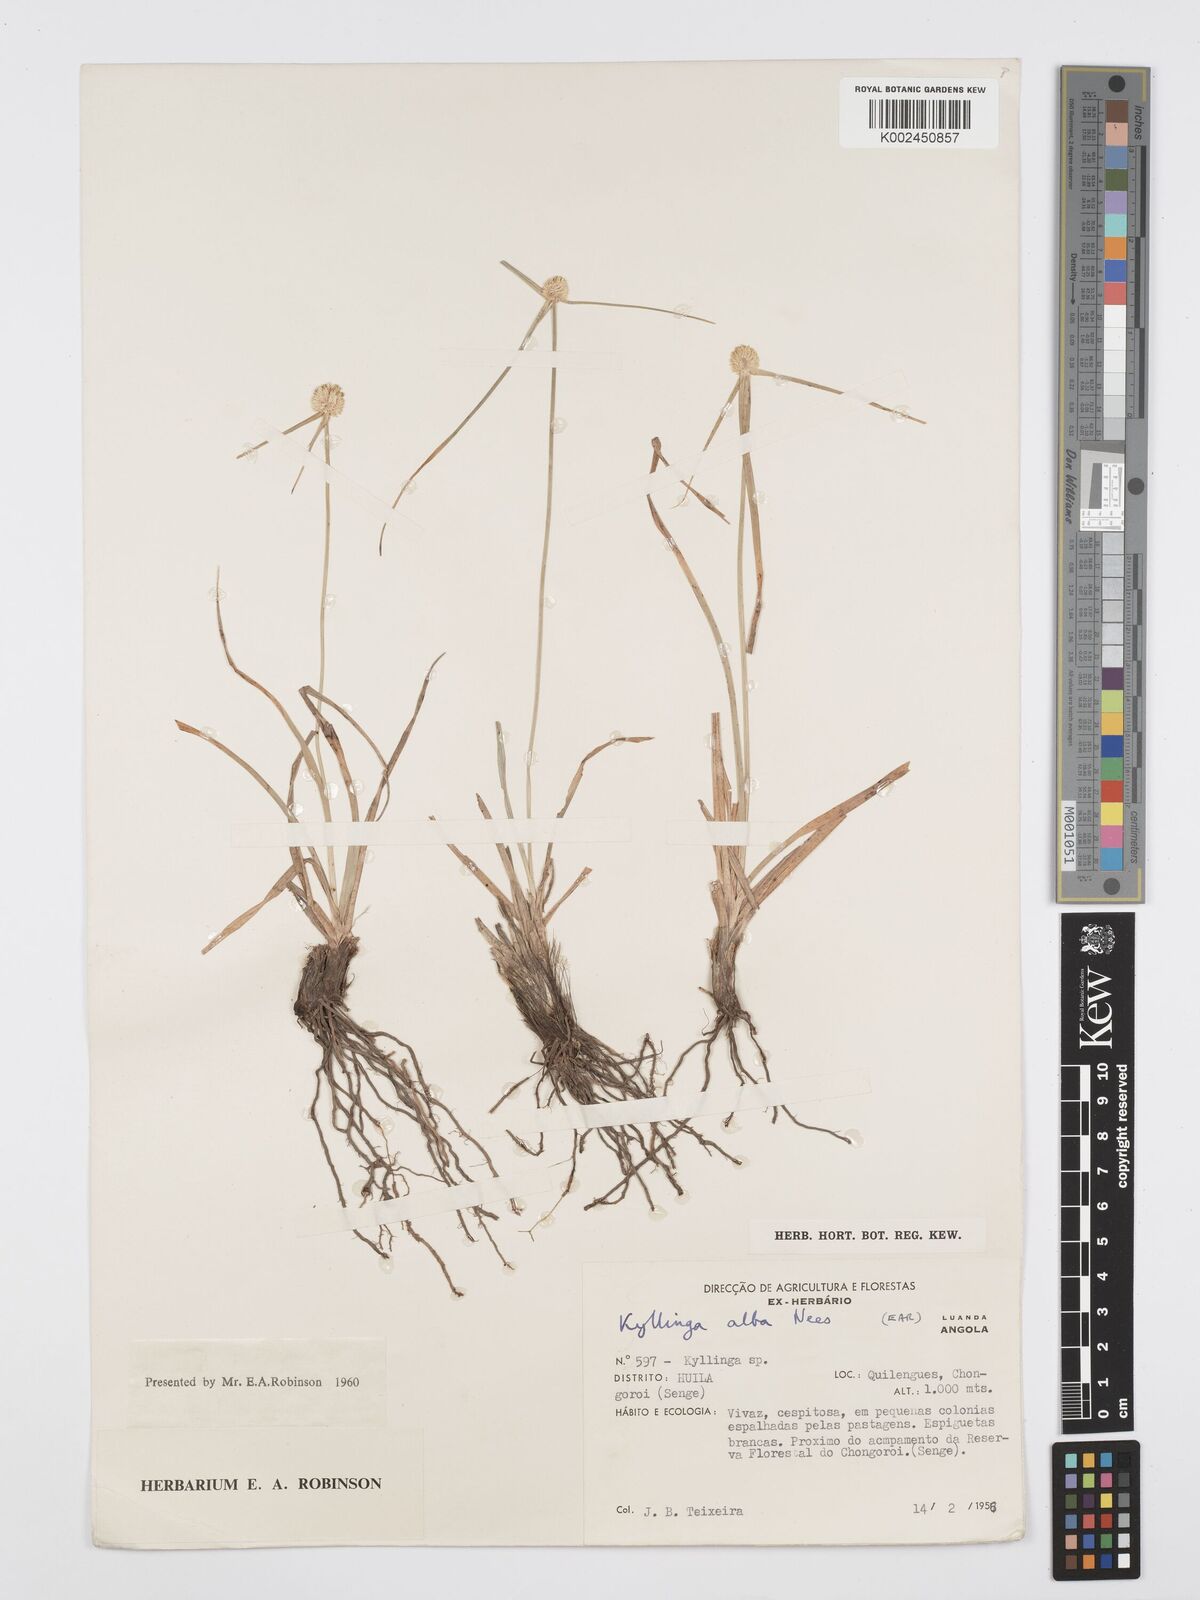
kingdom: Plantae
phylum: Tracheophyta
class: Liliopsida
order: Poales
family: Cyperaceae
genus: Cyperus
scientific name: Cyperus
